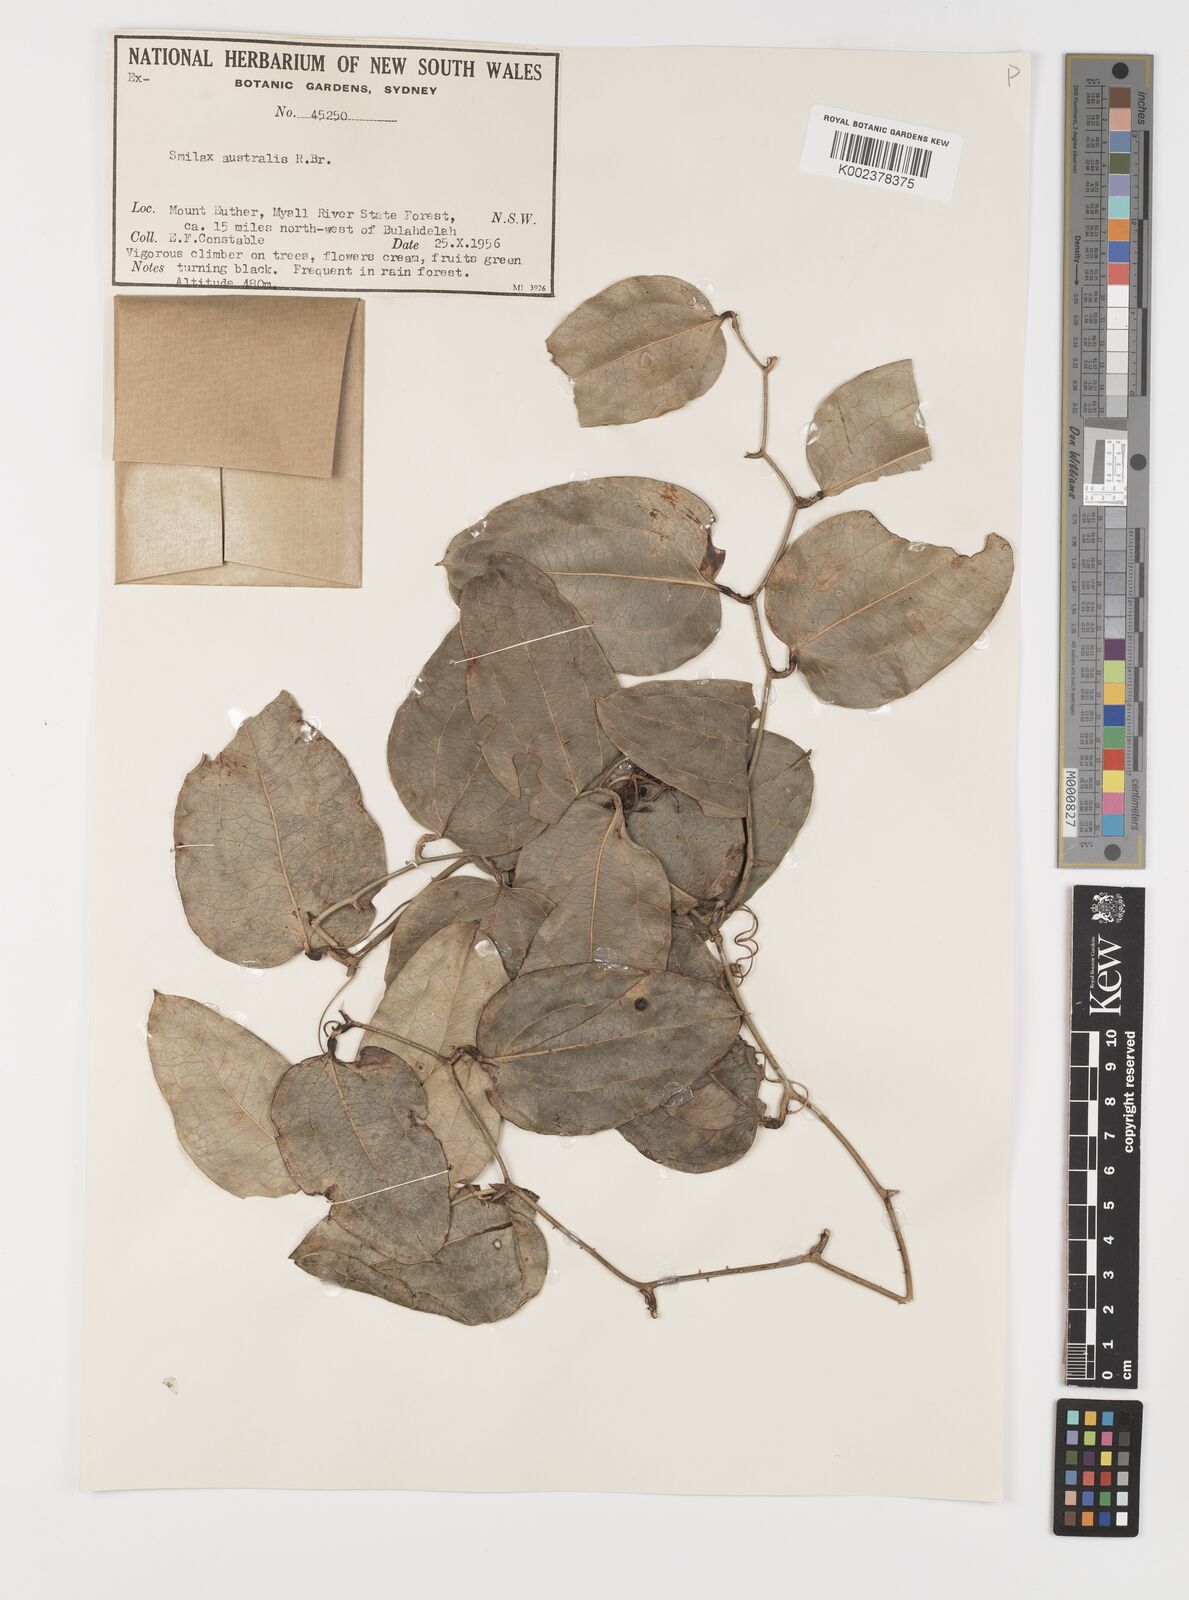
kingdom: Plantae
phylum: Tracheophyta
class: Liliopsida
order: Liliales
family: Smilacaceae
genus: Smilax
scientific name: Smilax australis
